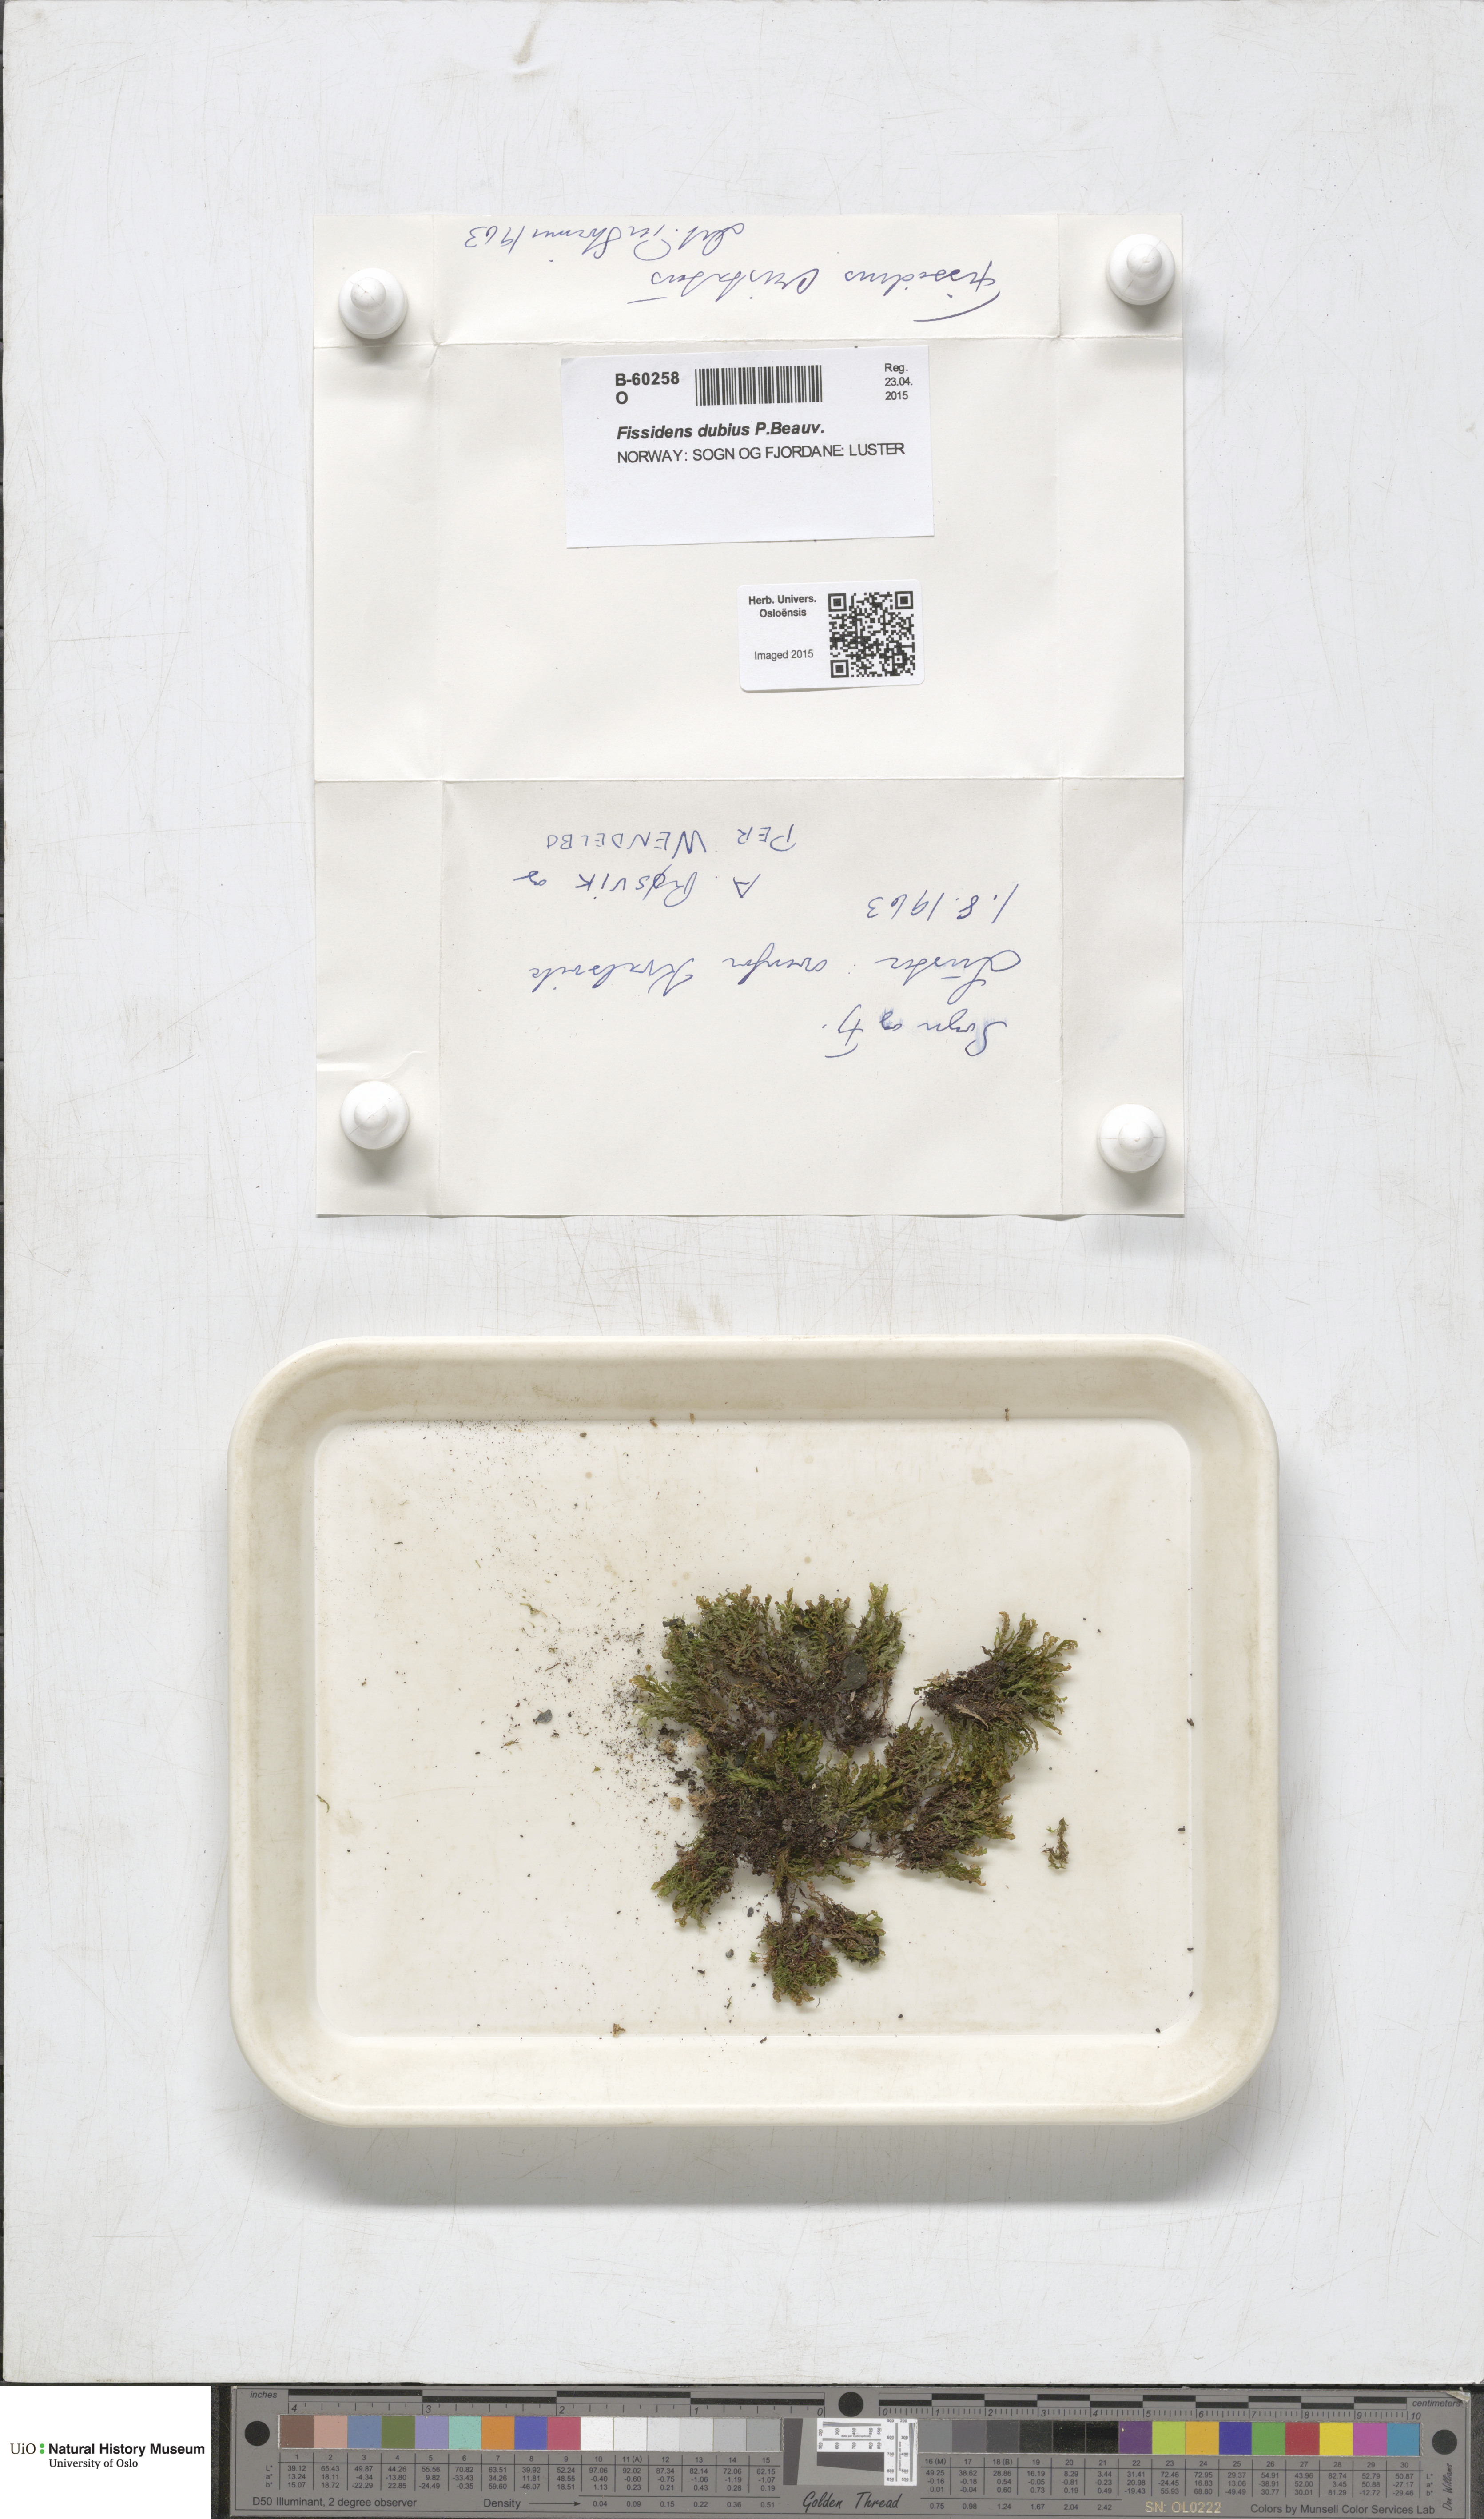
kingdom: Plantae
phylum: Bryophyta
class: Bryopsida
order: Dicranales
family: Fissidentaceae
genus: Fissidens
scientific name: Fissidens dubius
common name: Rock pocket moss
